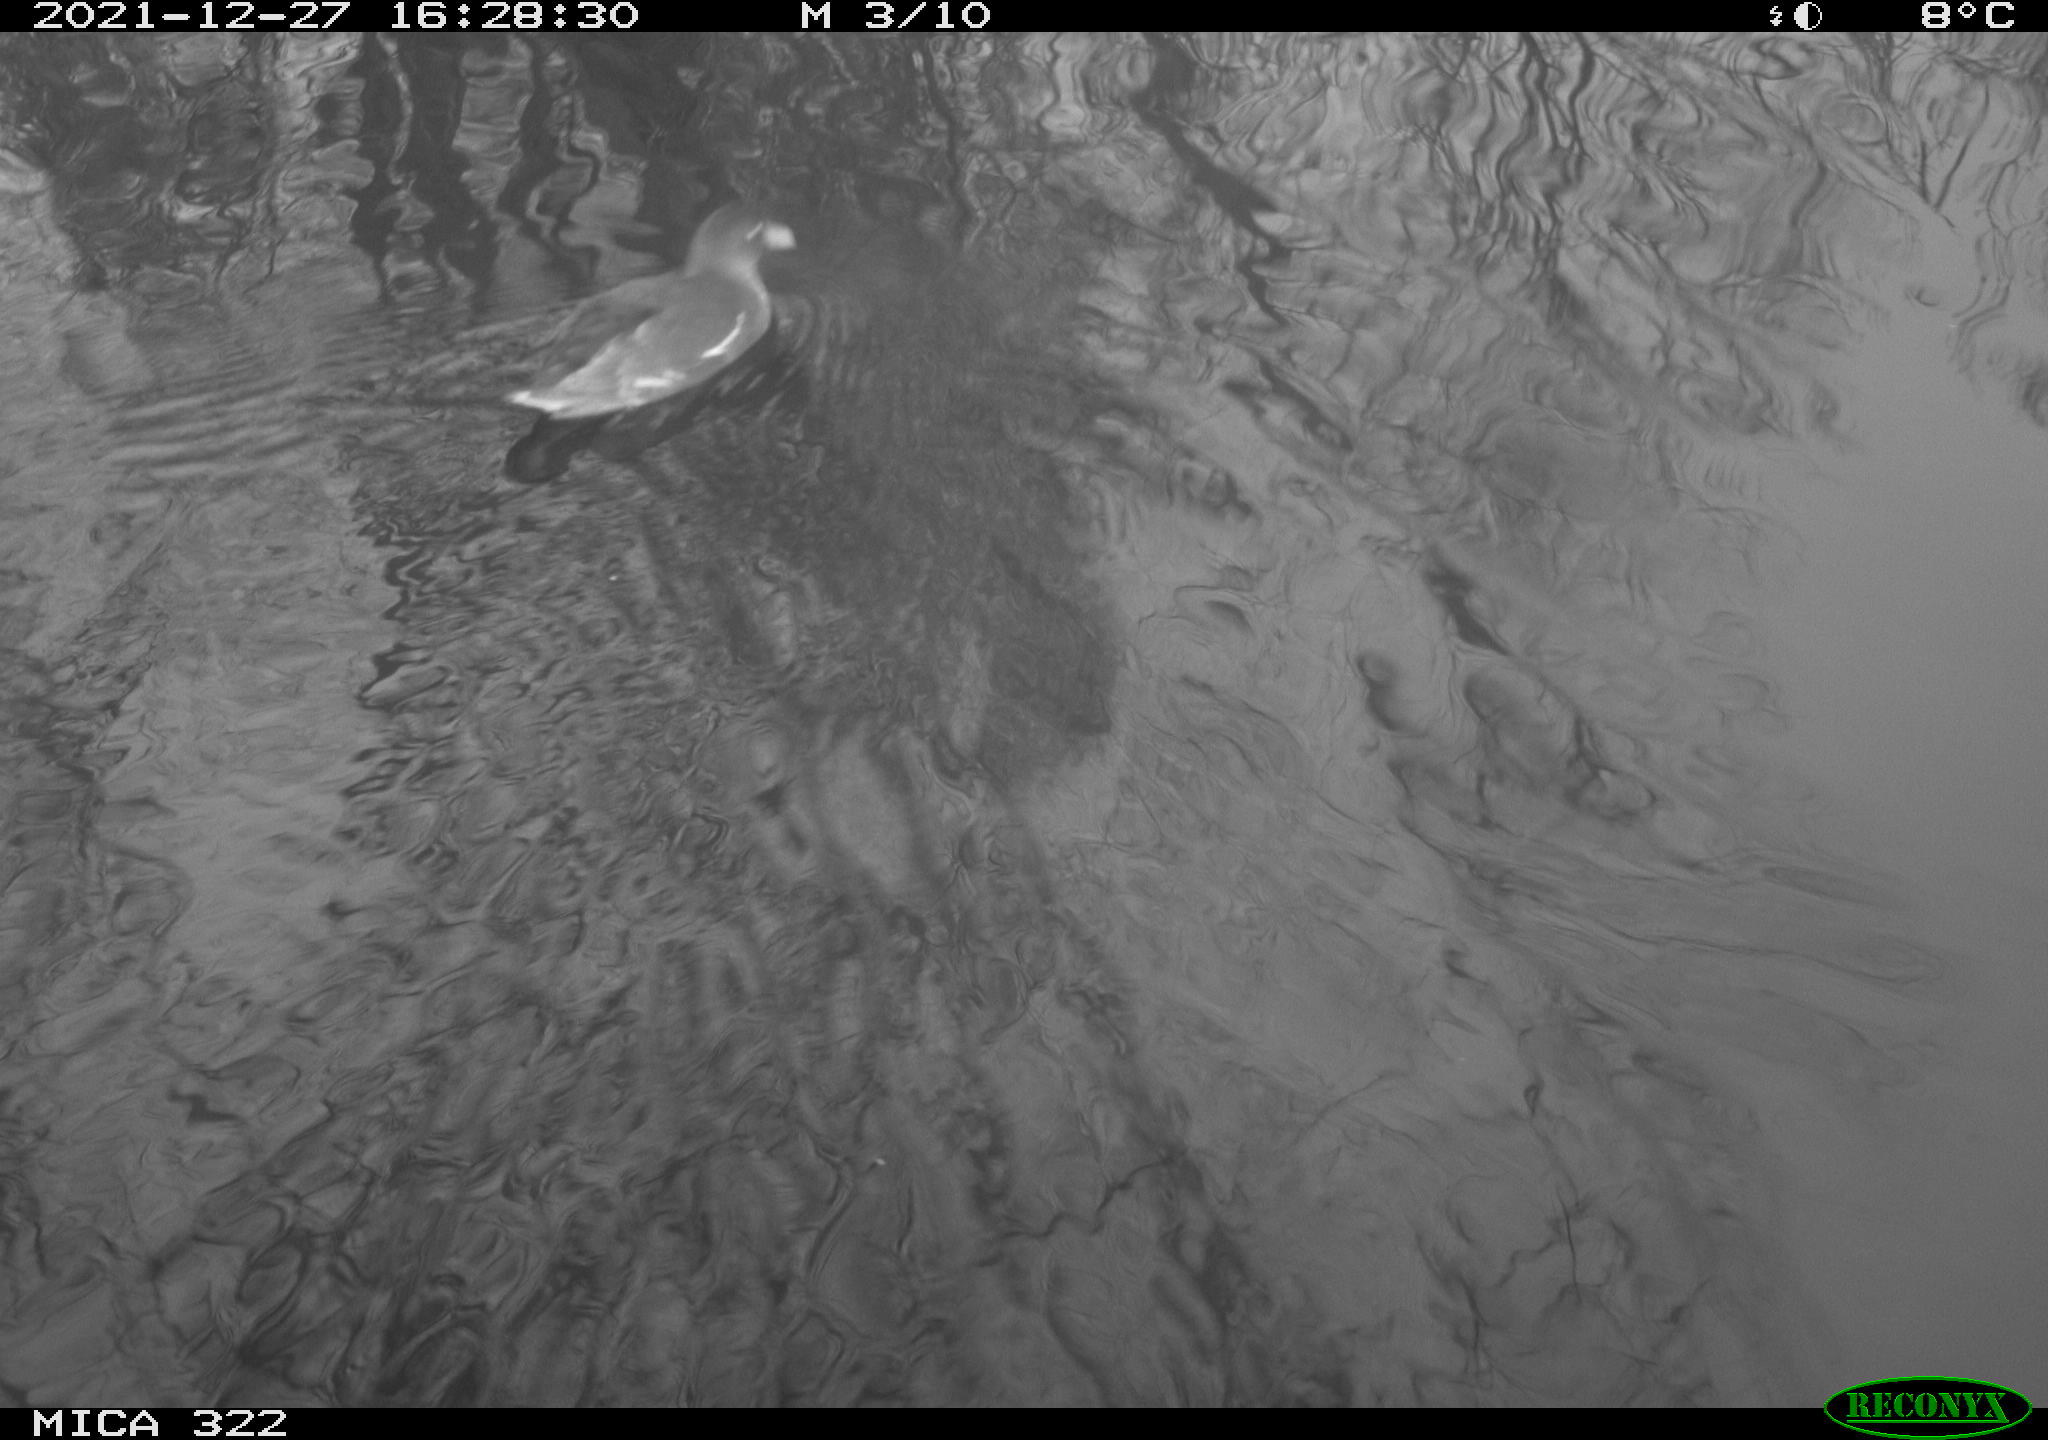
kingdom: Animalia
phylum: Chordata
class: Aves
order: Gruiformes
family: Rallidae
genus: Gallinula
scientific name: Gallinula chloropus
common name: Common moorhen
